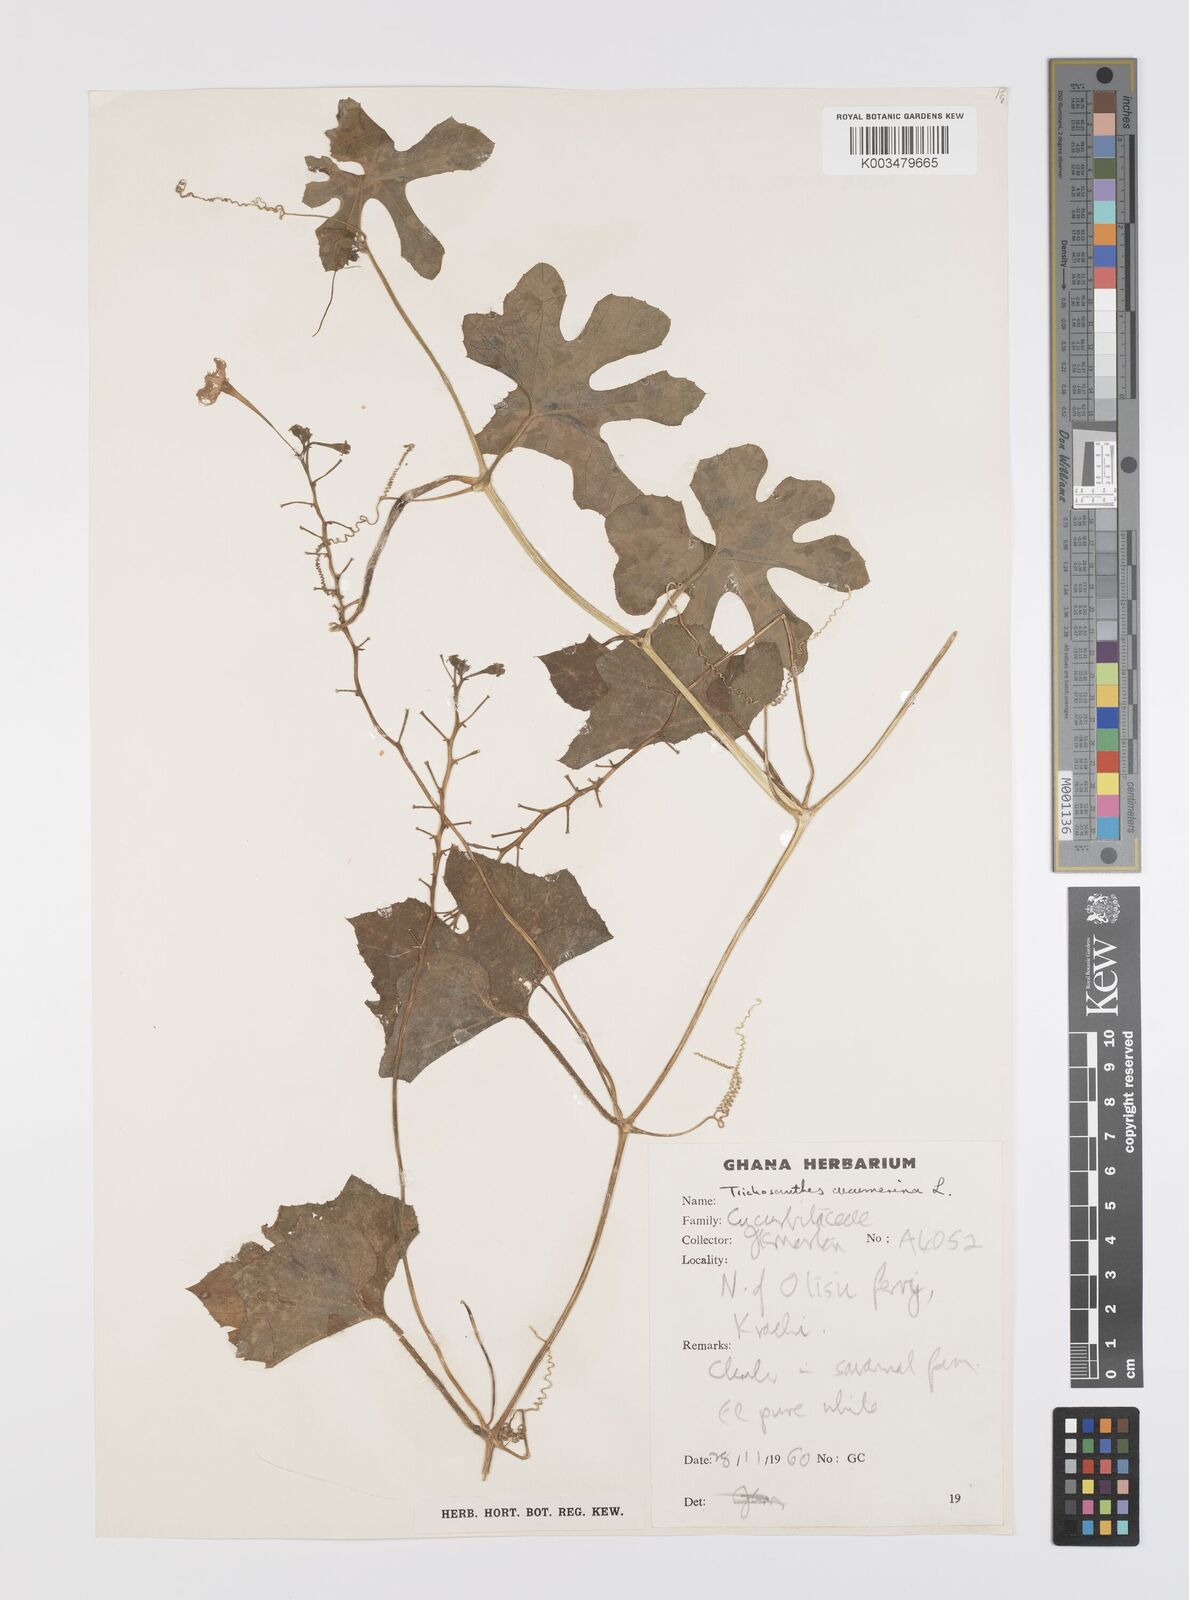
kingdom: Plantae
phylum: Tracheophyta
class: Magnoliopsida
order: Cucurbitales
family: Cucurbitaceae
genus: Trichosanthes
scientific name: Trichosanthes cucumerina
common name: Snakegourd
